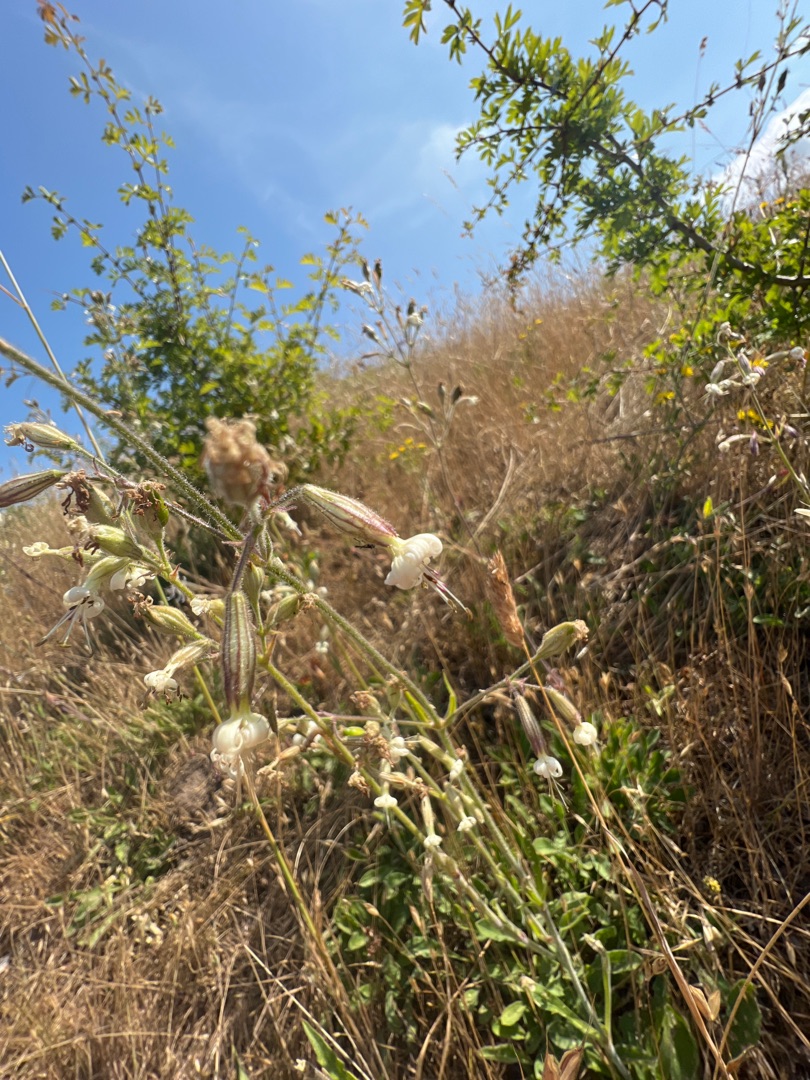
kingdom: Plantae
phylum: Tracheophyta
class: Magnoliopsida
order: Caryophyllales
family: Caryophyllaceae
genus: Silene
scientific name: Silene nutans
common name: Nikkende limurt
